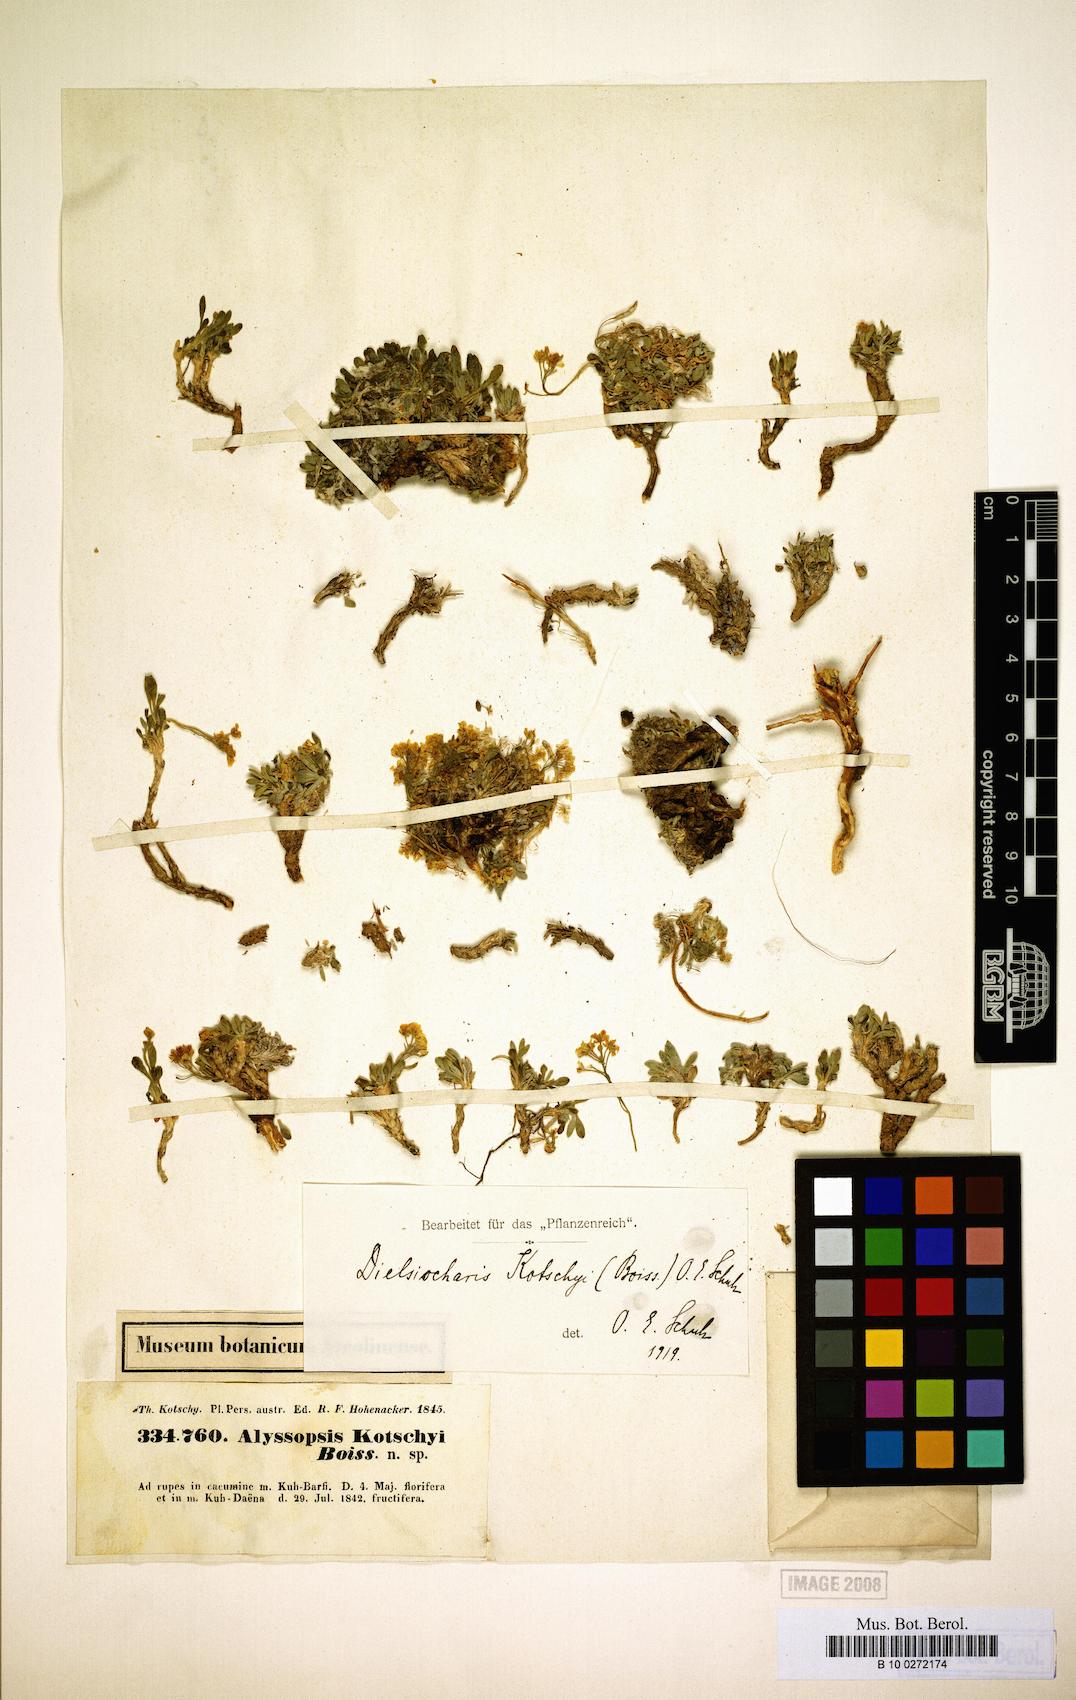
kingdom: Plantae
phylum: Tracheophyta
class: Magnoliopsida
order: Brassicales
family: Brassicaceae
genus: Dielsiocharis
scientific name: Dielsiocharis kotschyi
